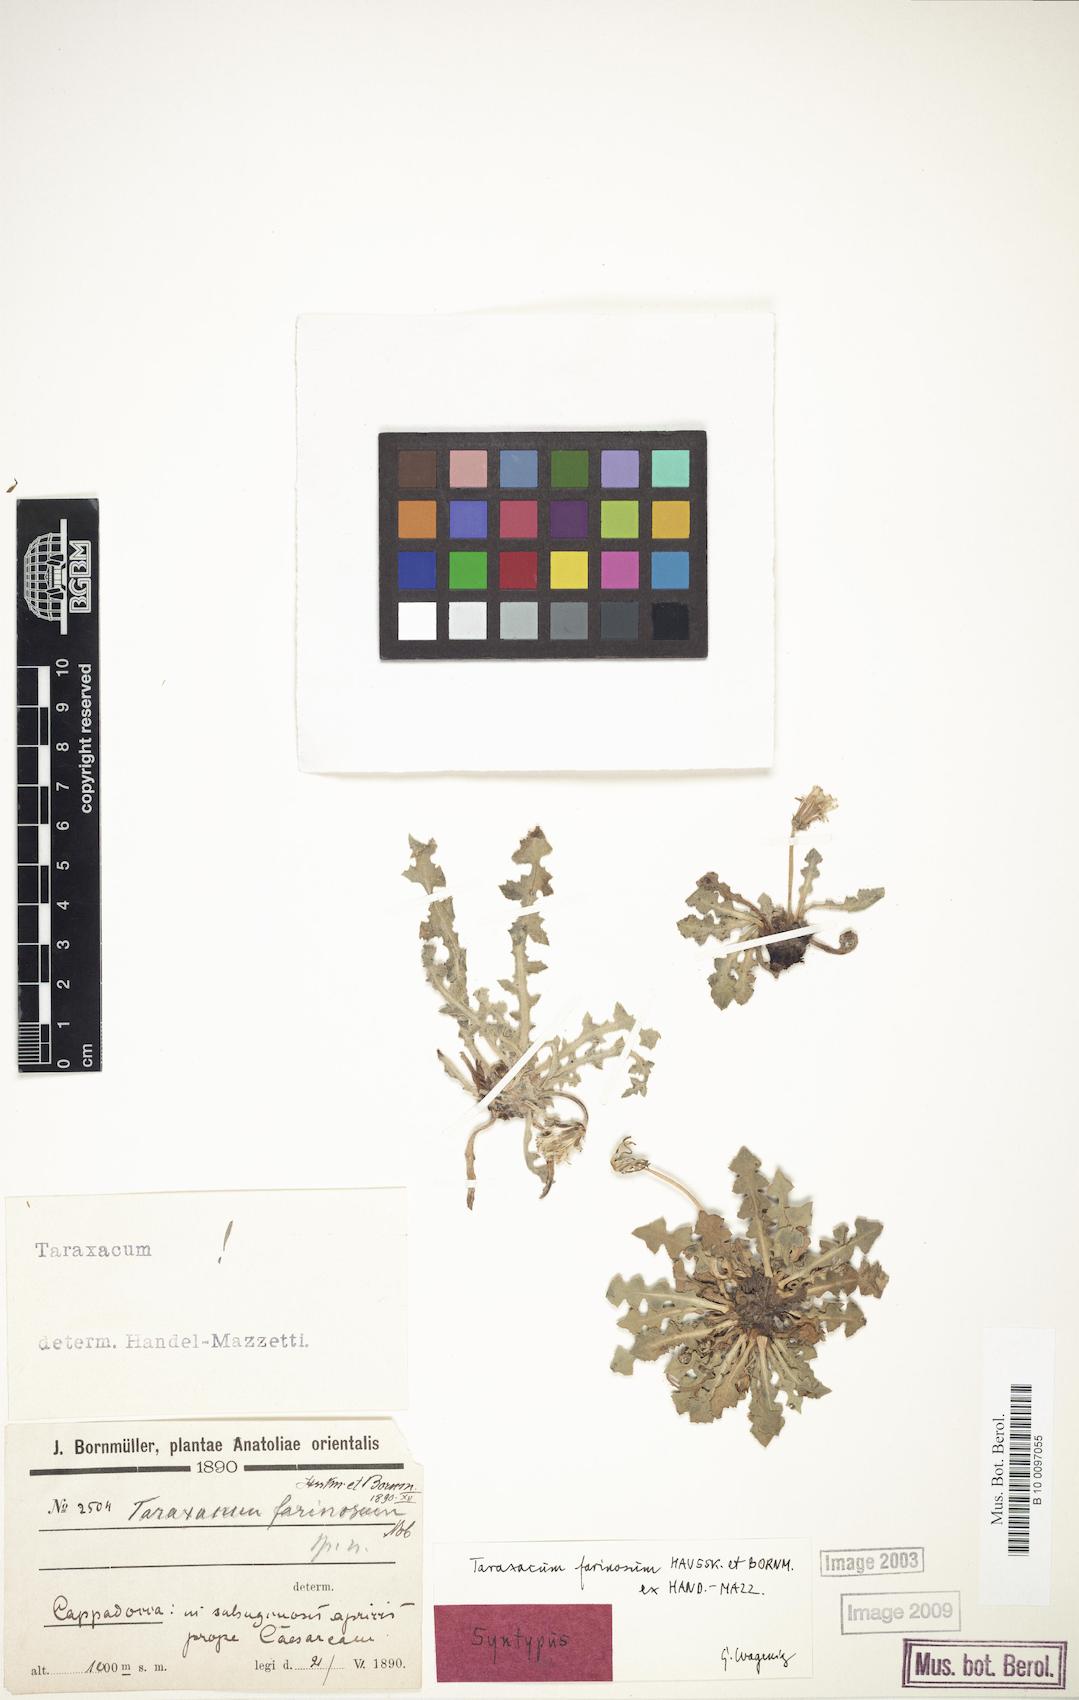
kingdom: Plantae
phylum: Tracheophyta
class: Magnoliopsida
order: Asterales
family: Asteraceae
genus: Taraxacum
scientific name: Taraxacum farinosum
